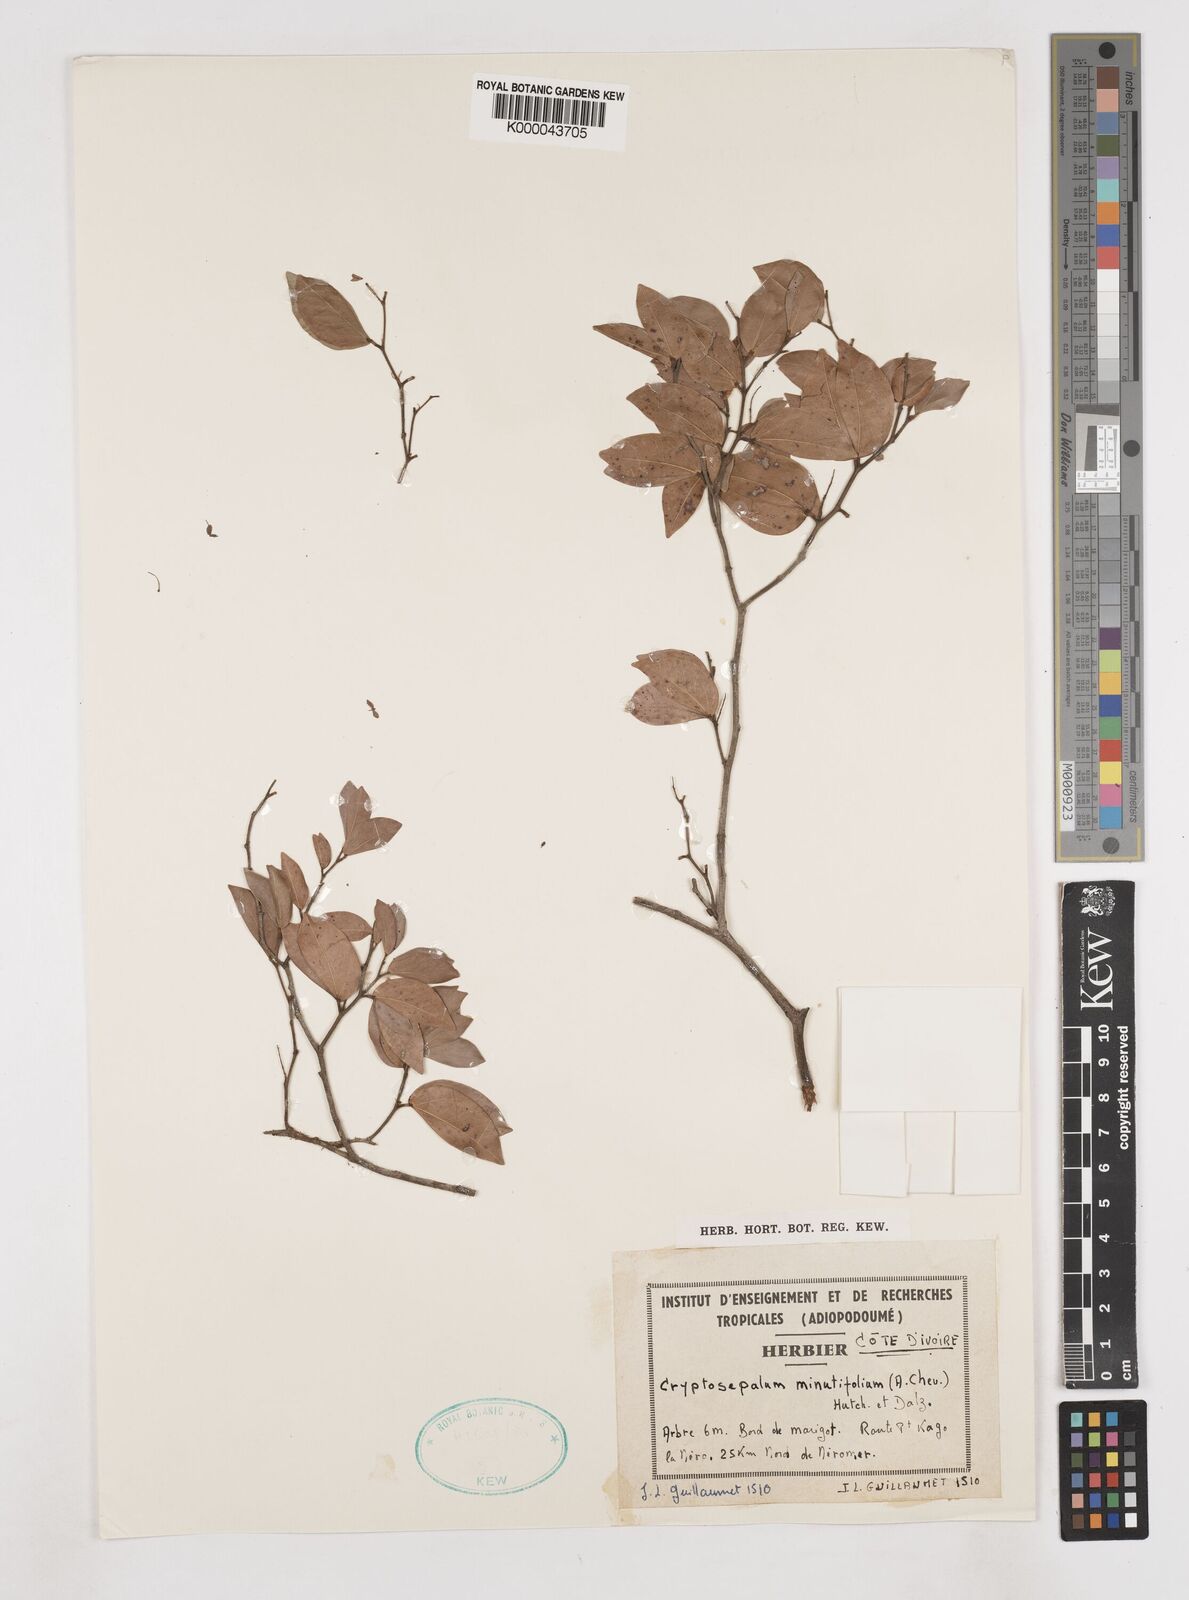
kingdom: Plantae
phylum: Tracheophyta
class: Magnoliopsida
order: Fabales
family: Fabaceae
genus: Cryptosepalum
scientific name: Cryptosepalum minutifolium
